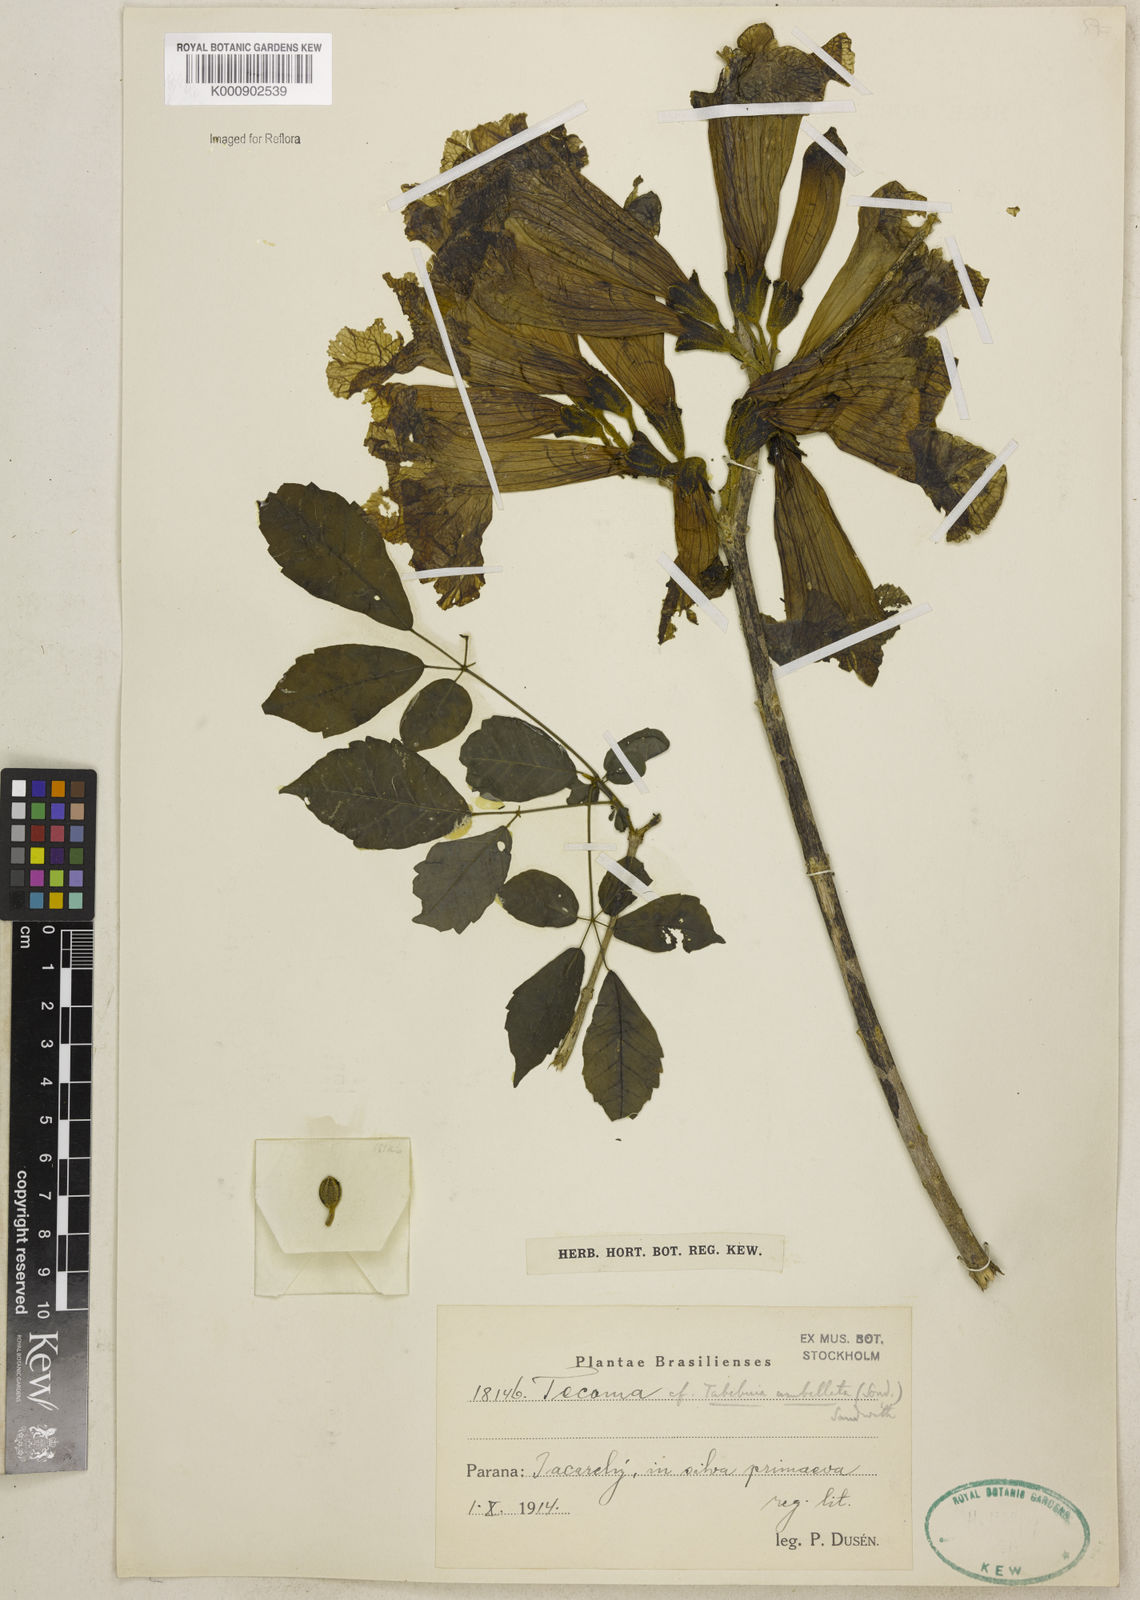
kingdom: Plantae
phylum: Tracheophyta
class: Magnoliopsida
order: Lamiales
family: Bignoniaceae
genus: Handroanthus
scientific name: Handroanthus umbellatus
